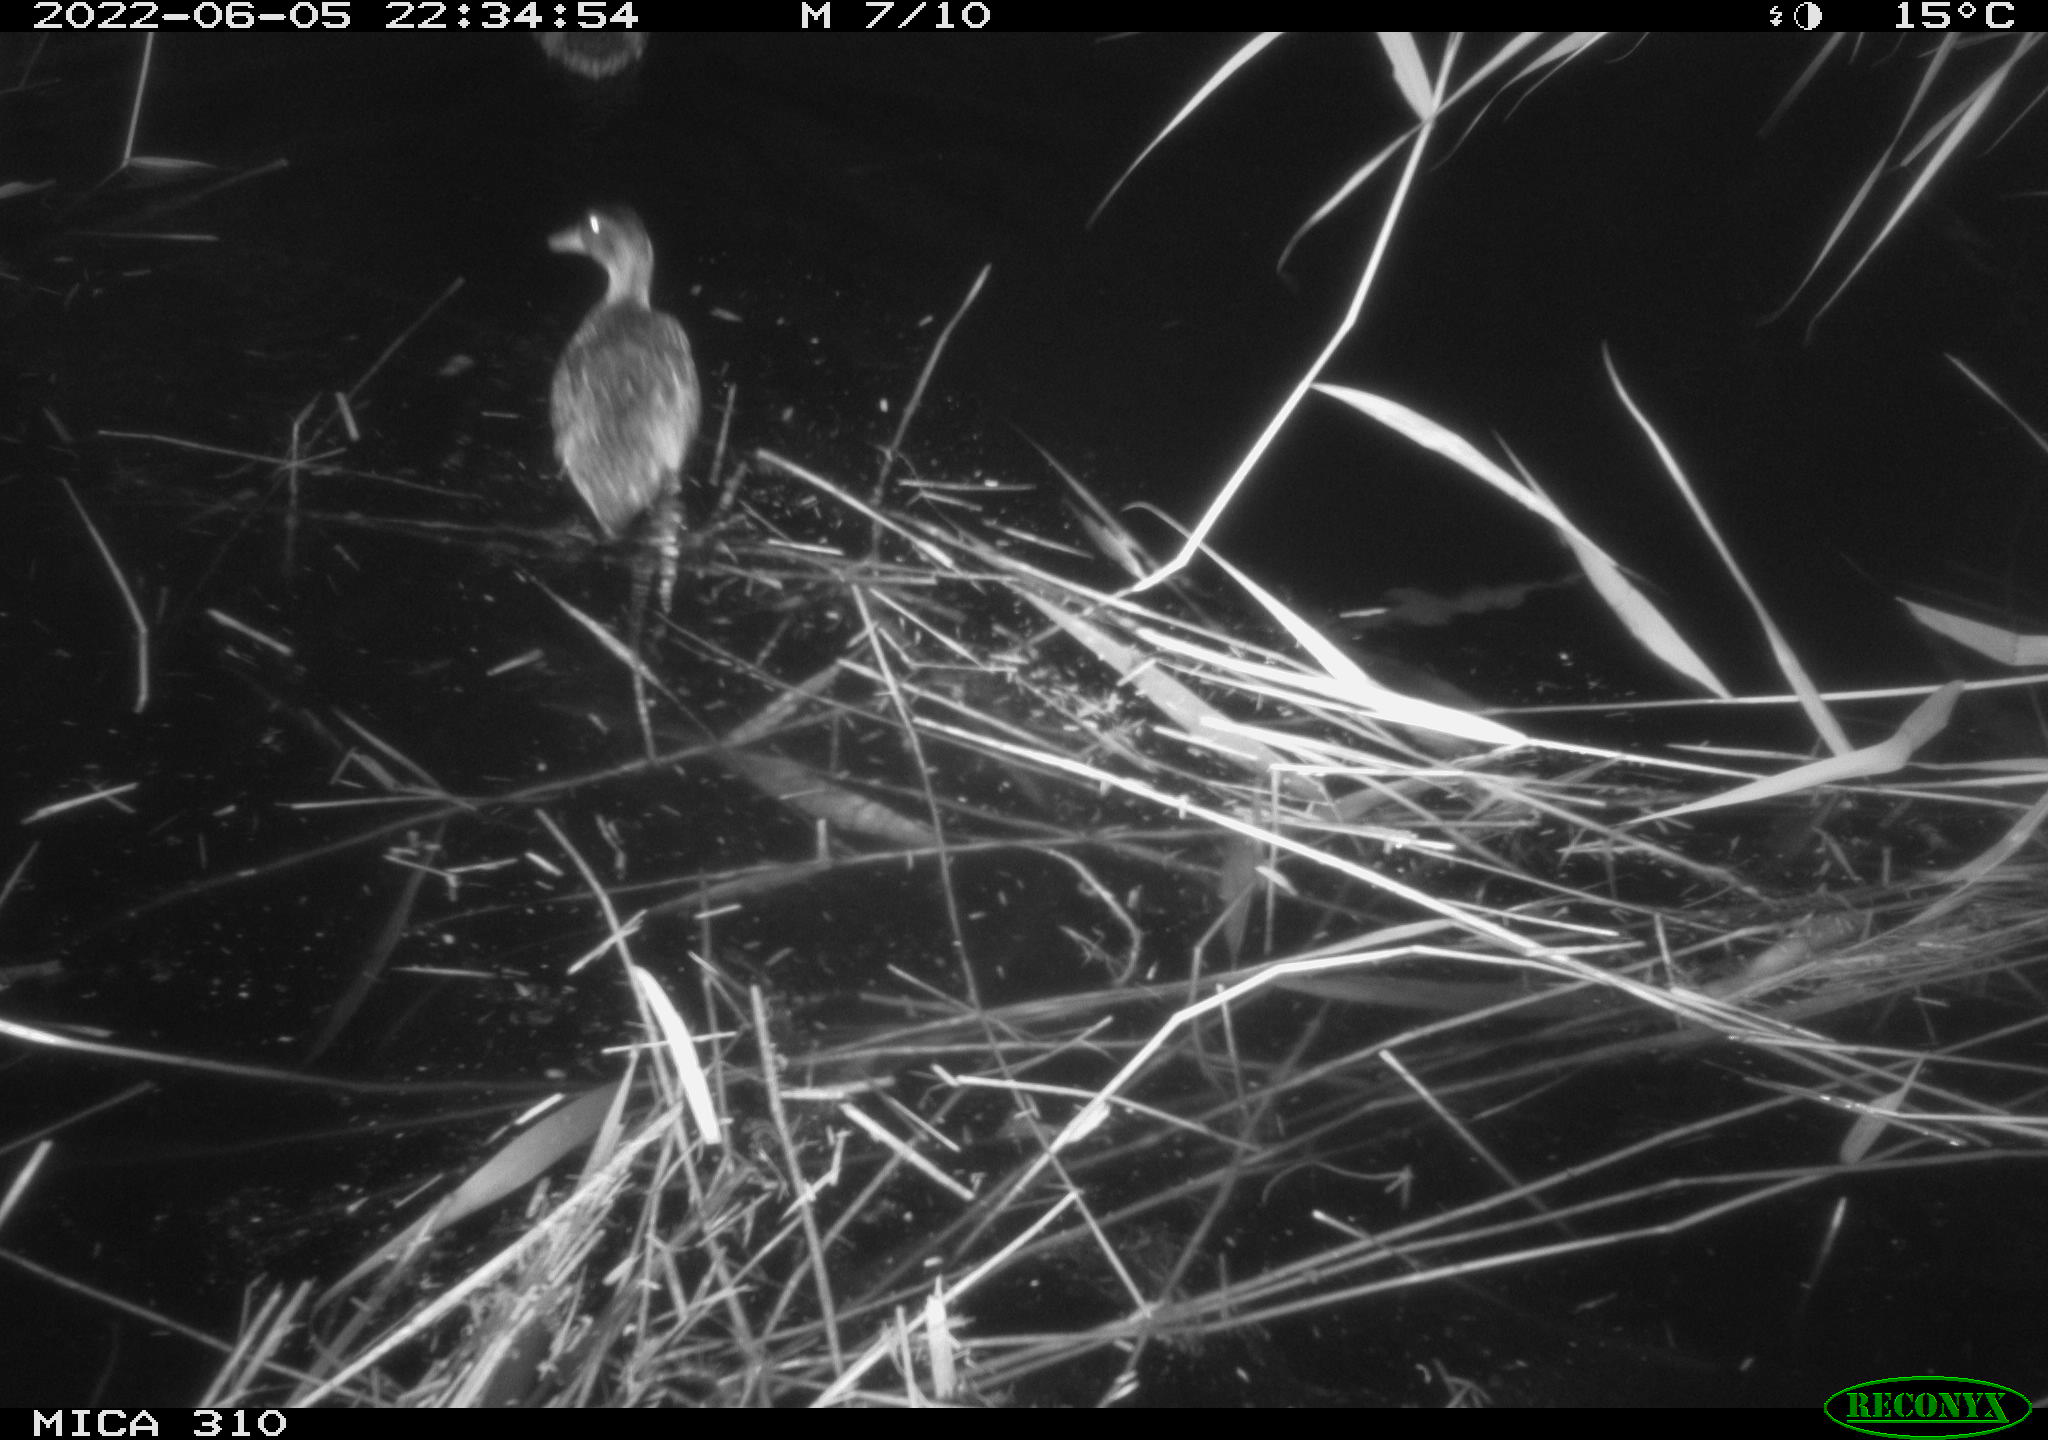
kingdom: Animalia
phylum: Chordata
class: Aves
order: Anseriformes
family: Anatidae
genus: Anas
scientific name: Anas platyrhynchos
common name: Mallard
